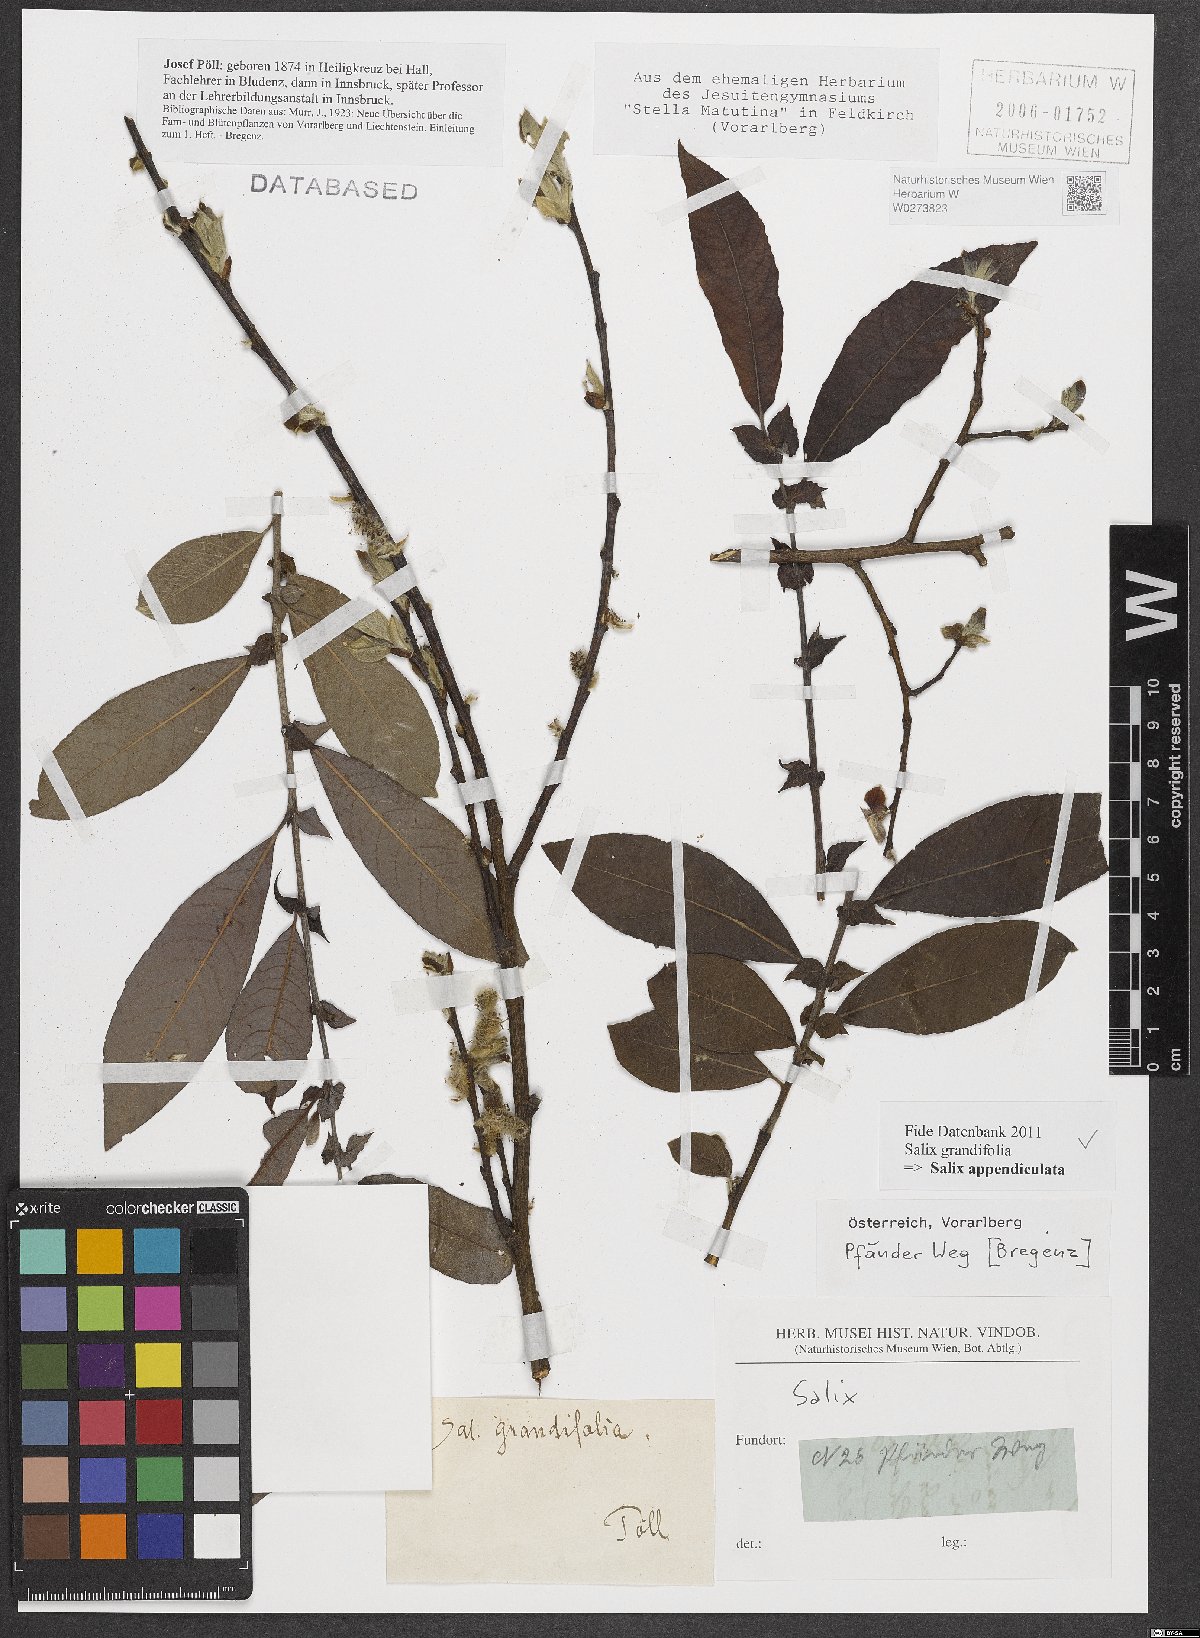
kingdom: Plantae
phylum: Tracheophyta
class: Magnoliopsida
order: Malpighiales
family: Salicaceae
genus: Salix
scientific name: Salix appendiculata
